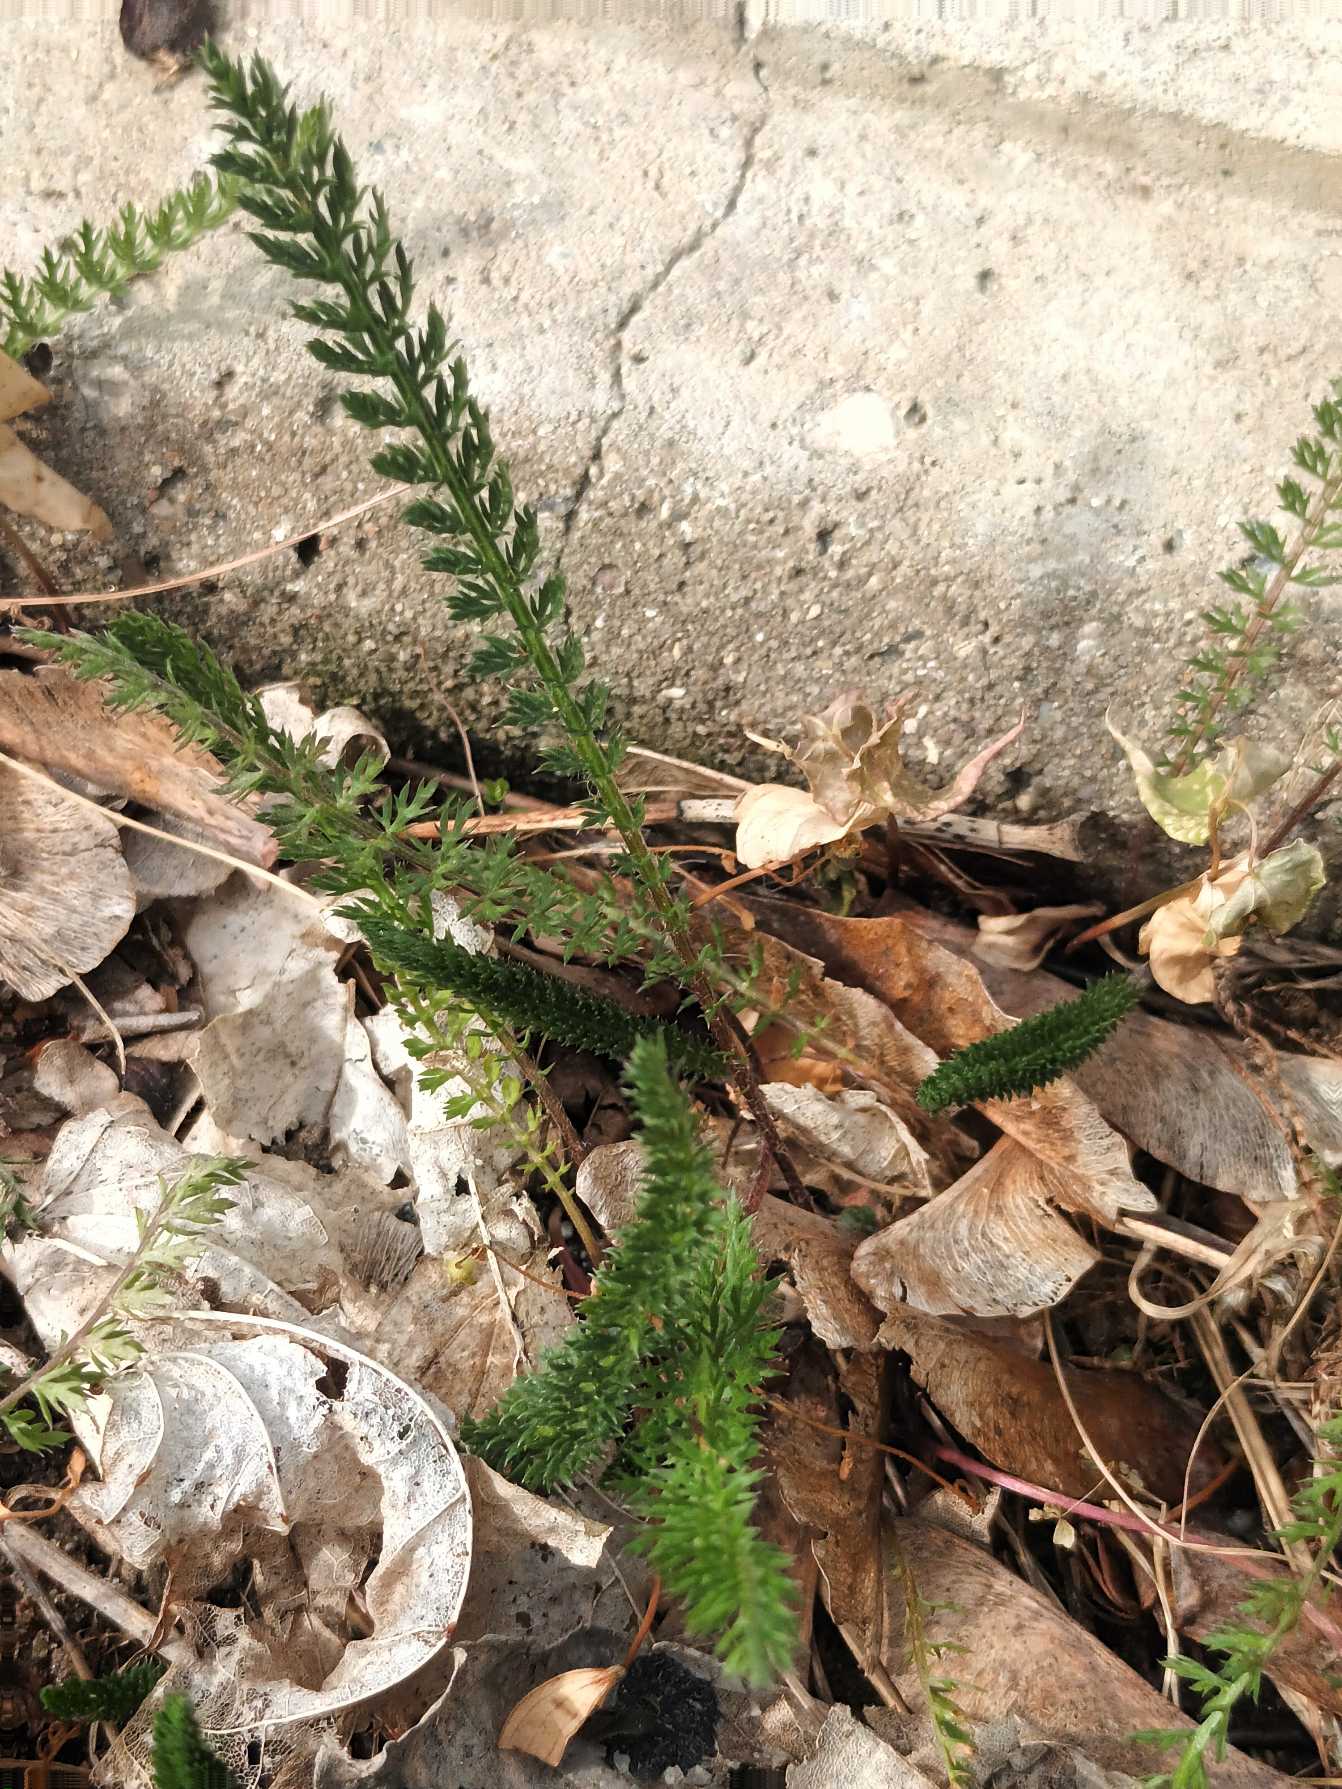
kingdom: Plantae
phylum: Tracheophyta
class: Magnoliopsida
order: Asterales
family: Asteraceae
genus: Achillea
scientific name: Achillea millefolium
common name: Almindelig røllike
